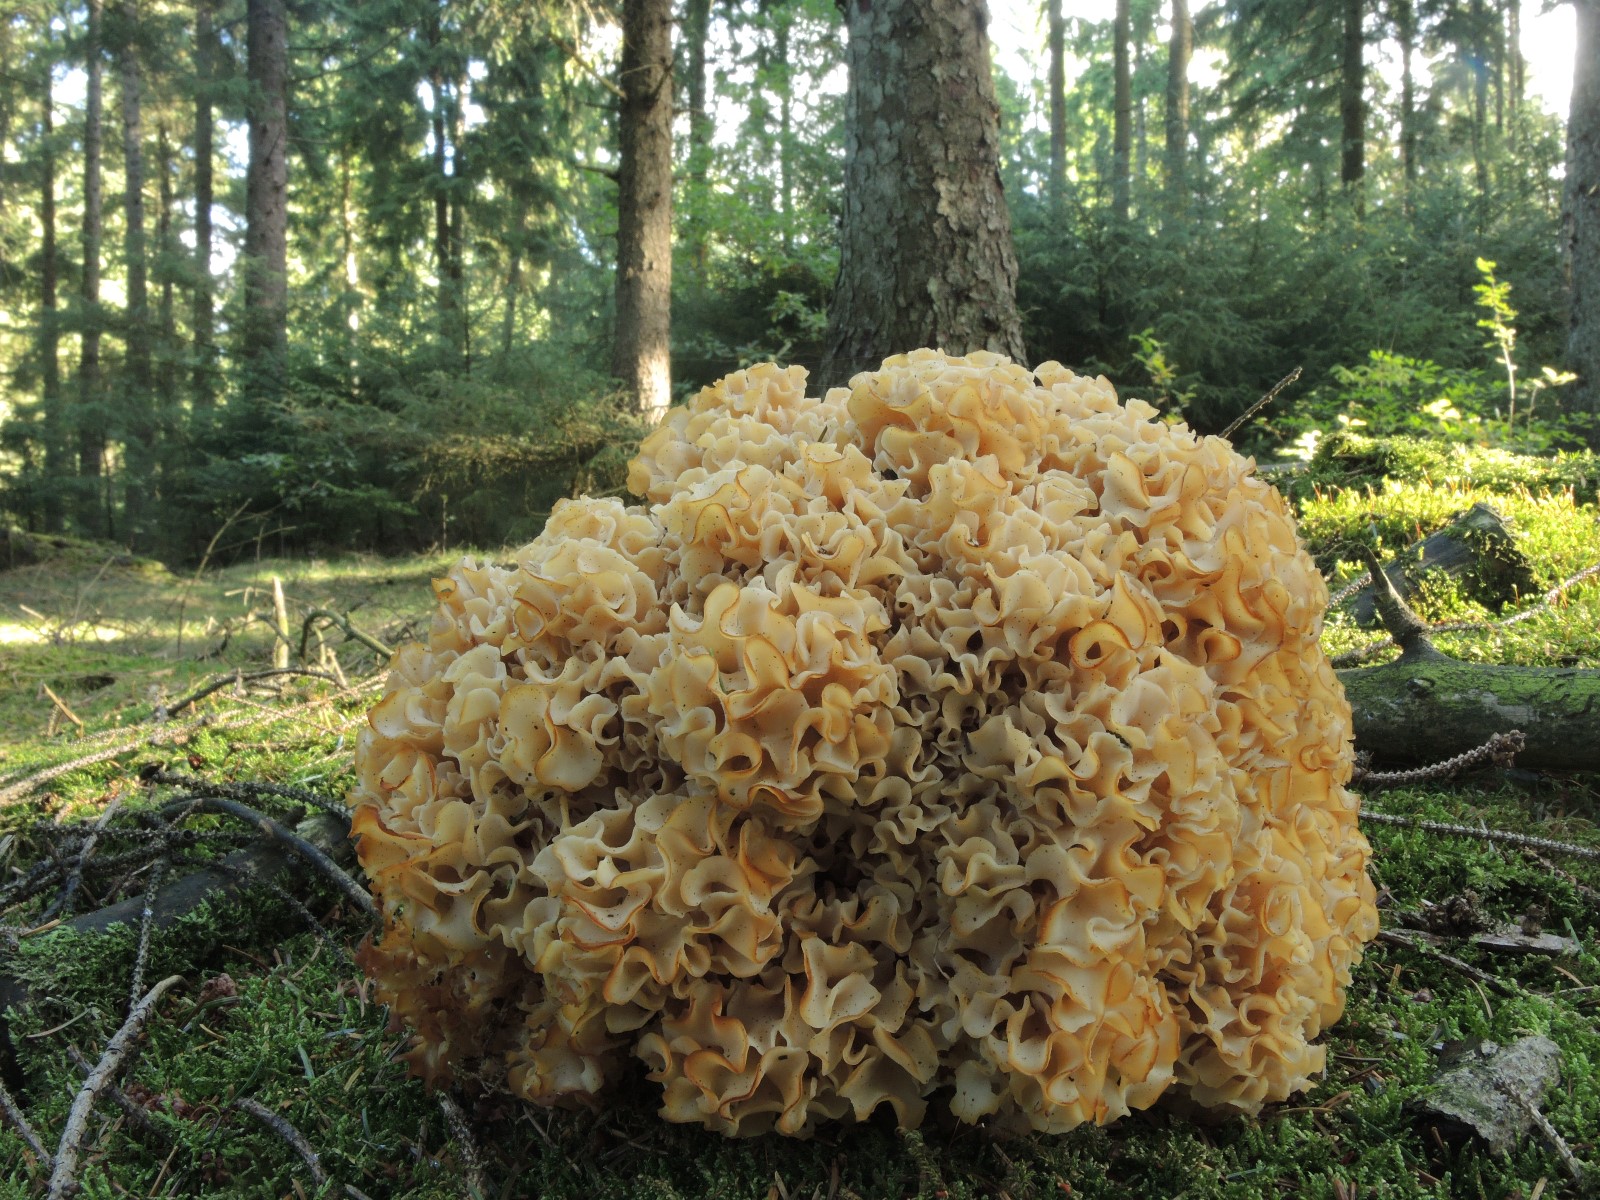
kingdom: Fungi
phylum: Basidiomycota
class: Agaricomycetes
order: Polyporales
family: Sparassidaceae
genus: Sparassis
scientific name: Sparassis crispa
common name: kruset blomkålssvamp
